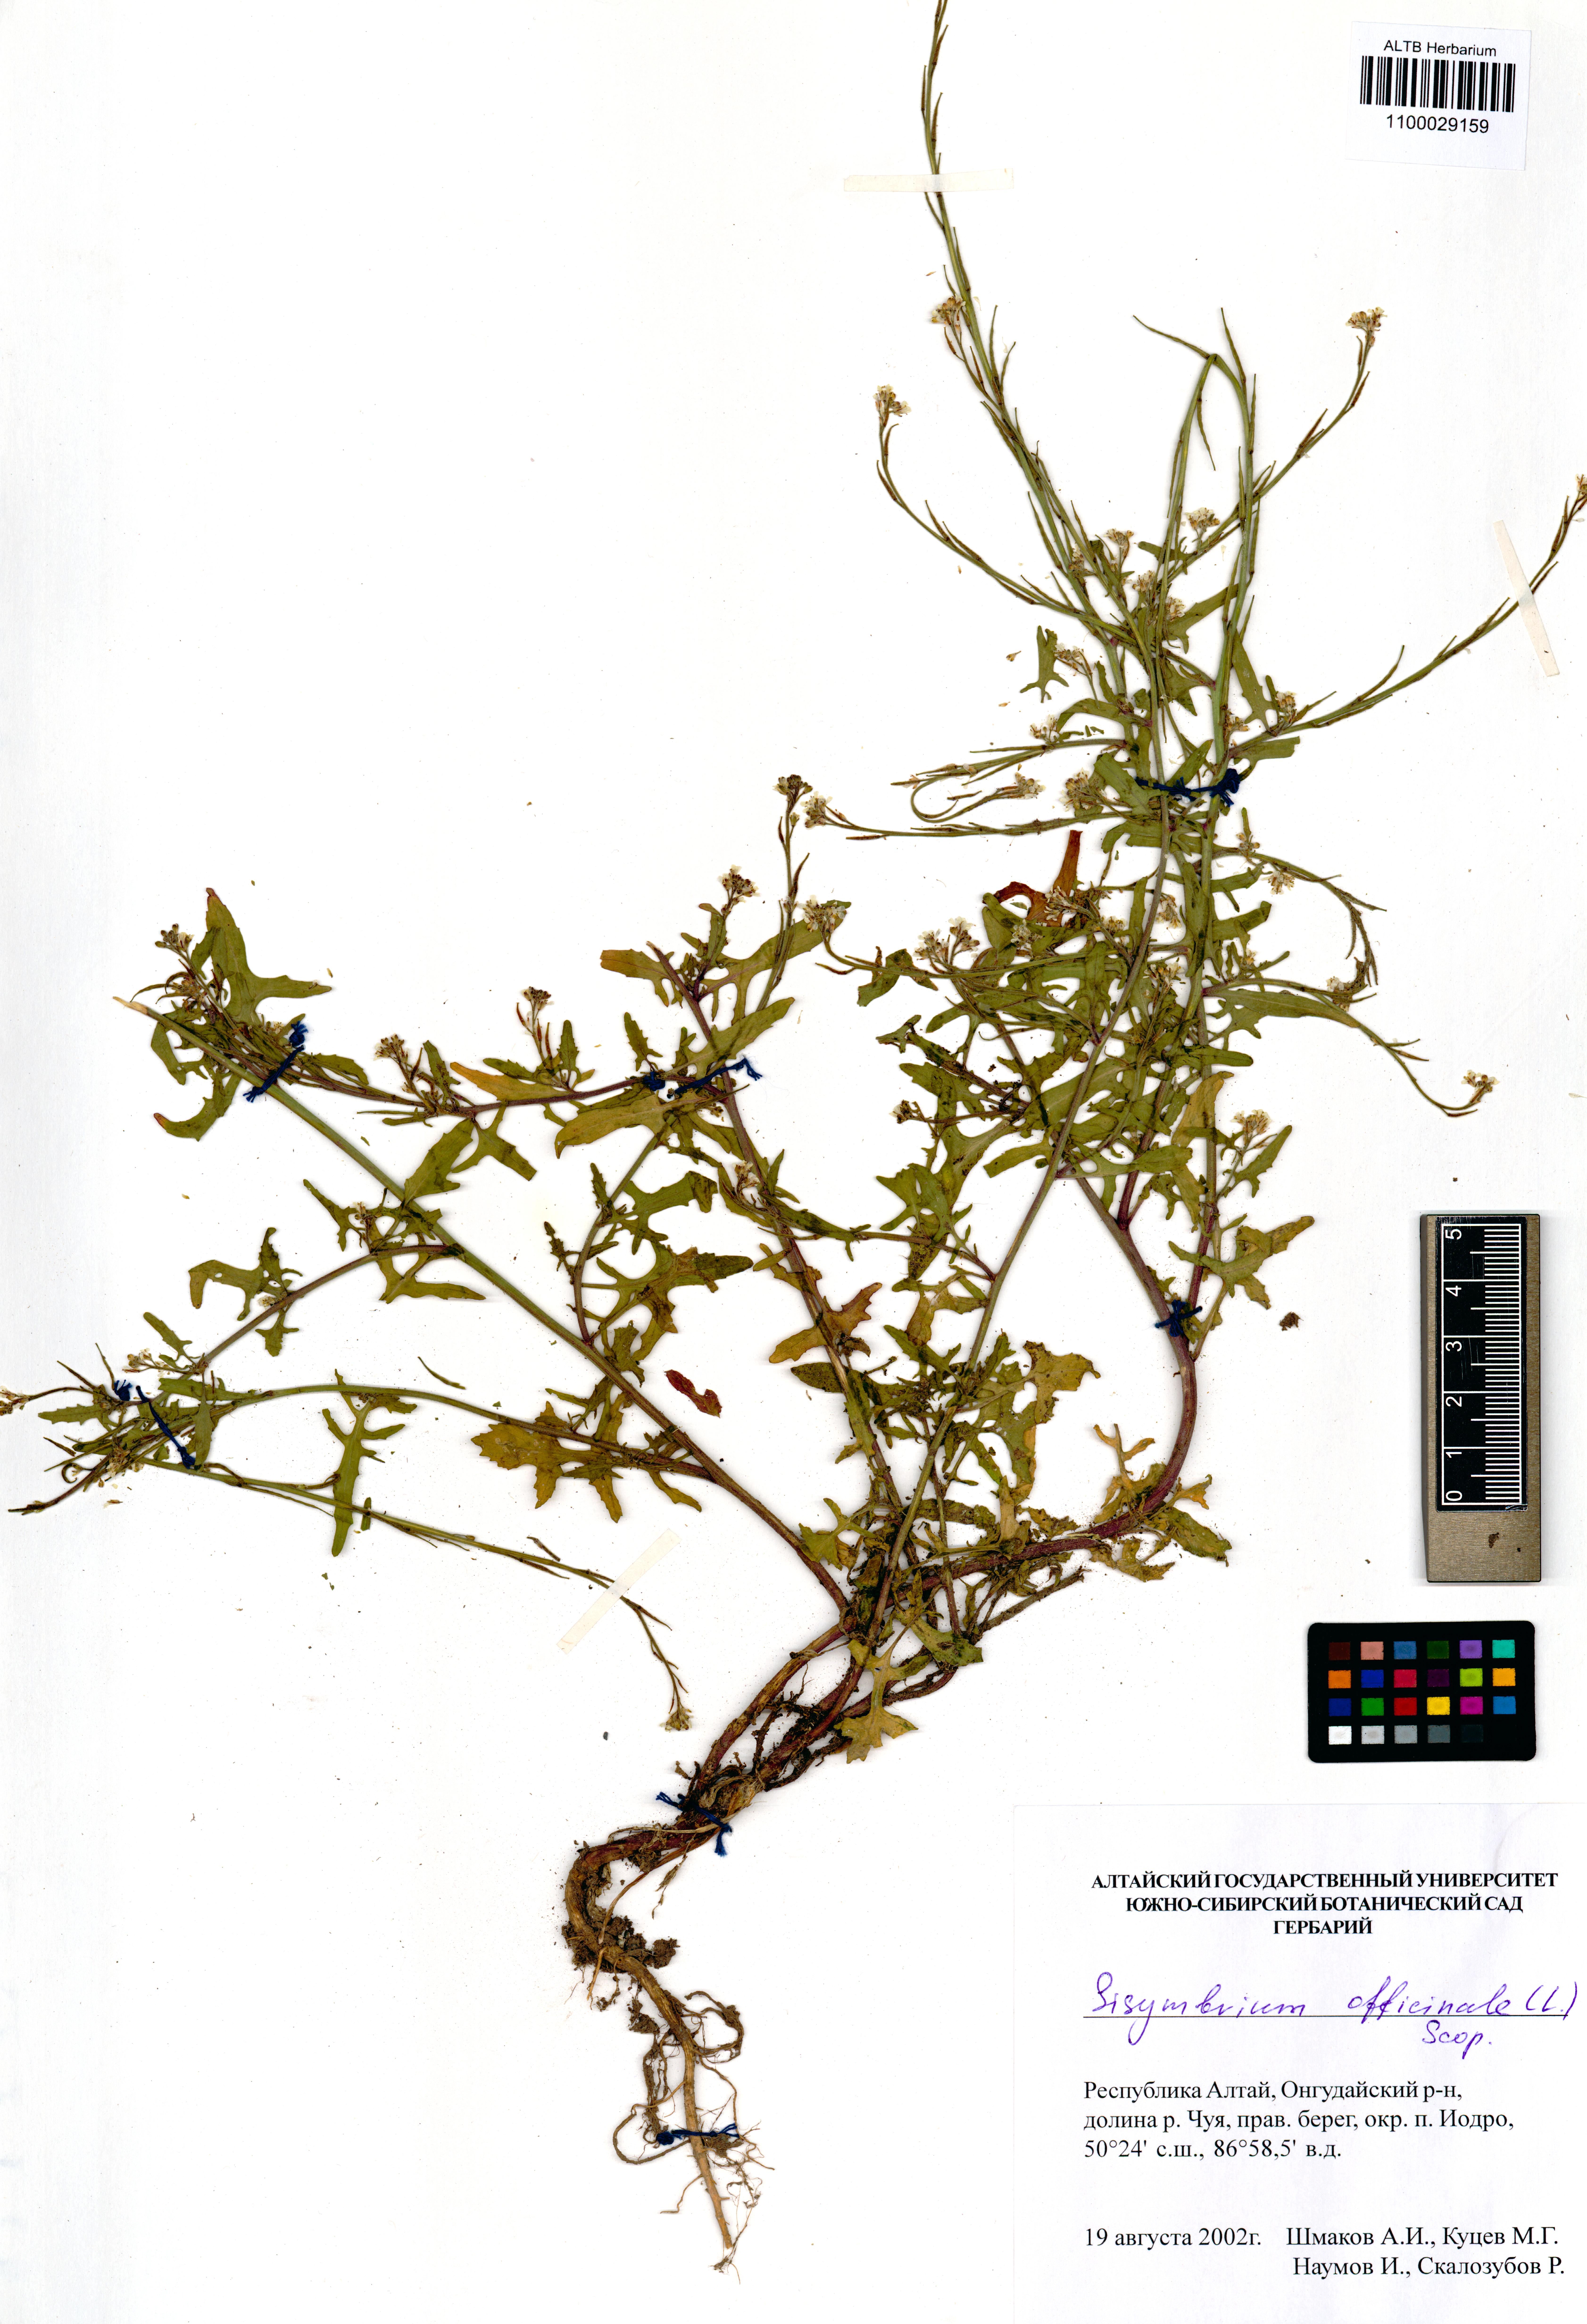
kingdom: Plantae
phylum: Tracheophyta
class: Magnoliopsida
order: Brassicales
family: Brassicaceae
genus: Sisymbrium
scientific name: Sisymbrium officinale
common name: Hedge mustard
